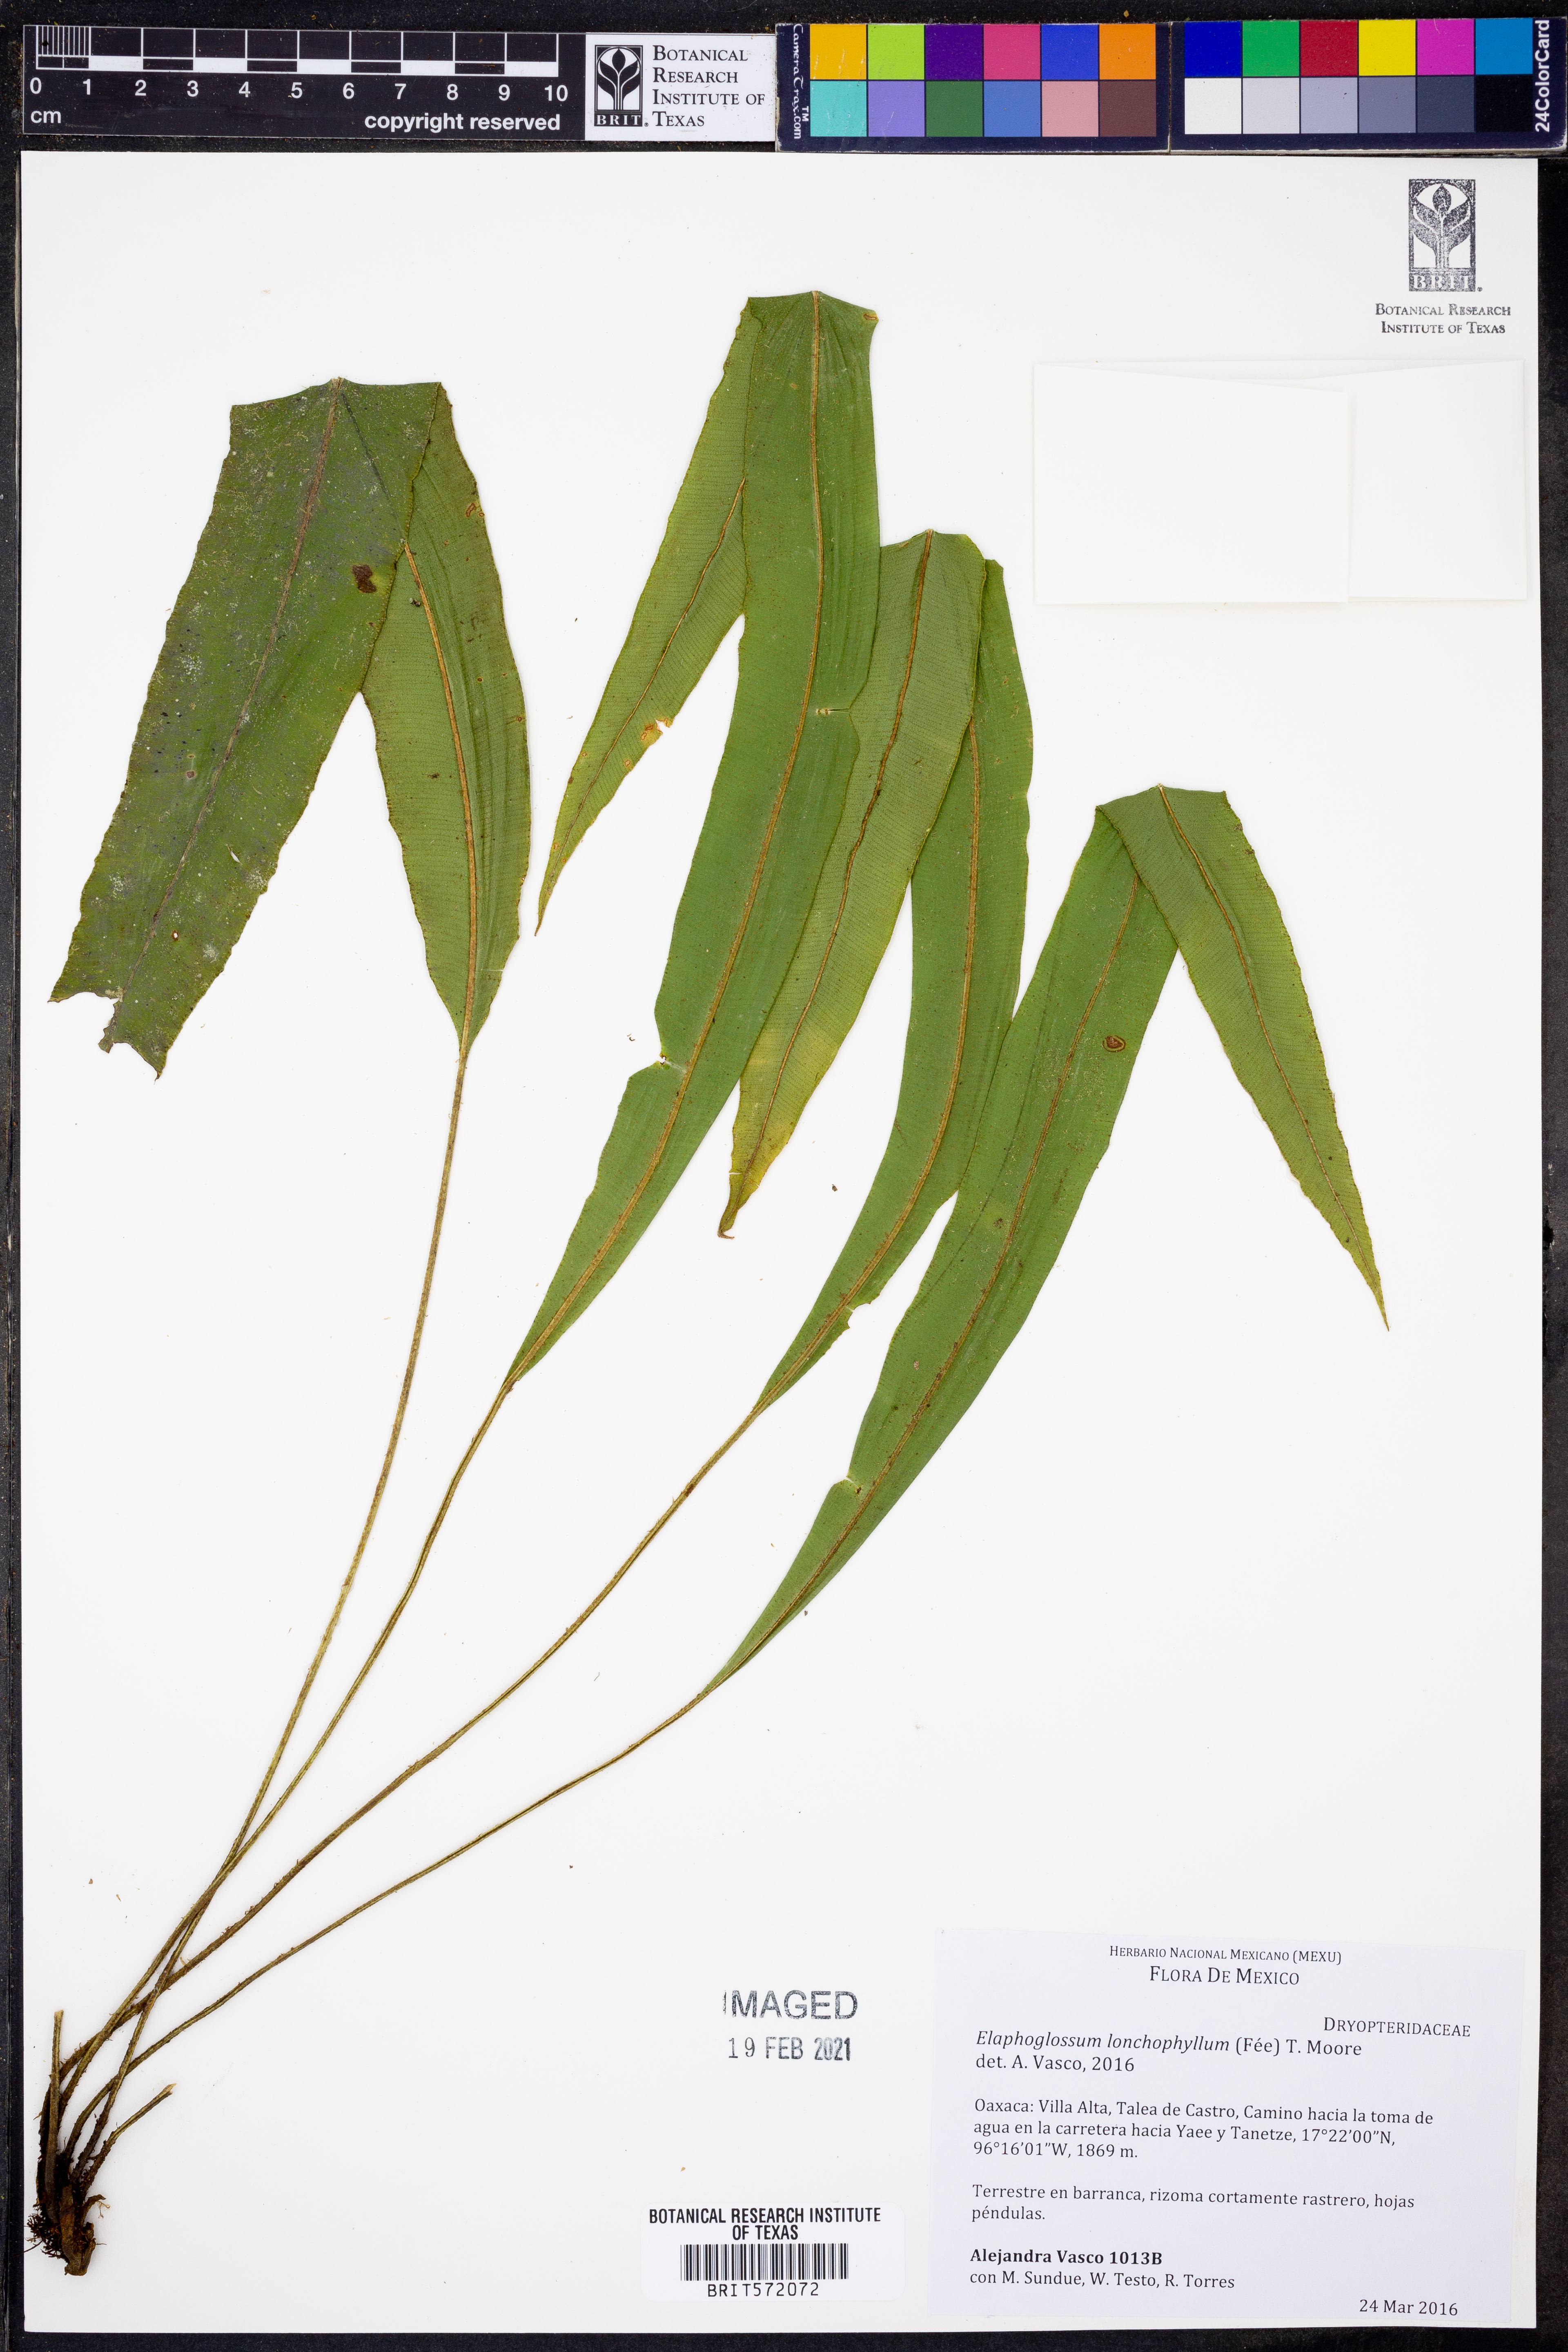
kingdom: Plantae
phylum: Tracheophyta
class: Polypodiopsida
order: Polypodiales
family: Dryopteridaceae
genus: Elaphoglossum
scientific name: Elaphoglossum lonchophyllum
